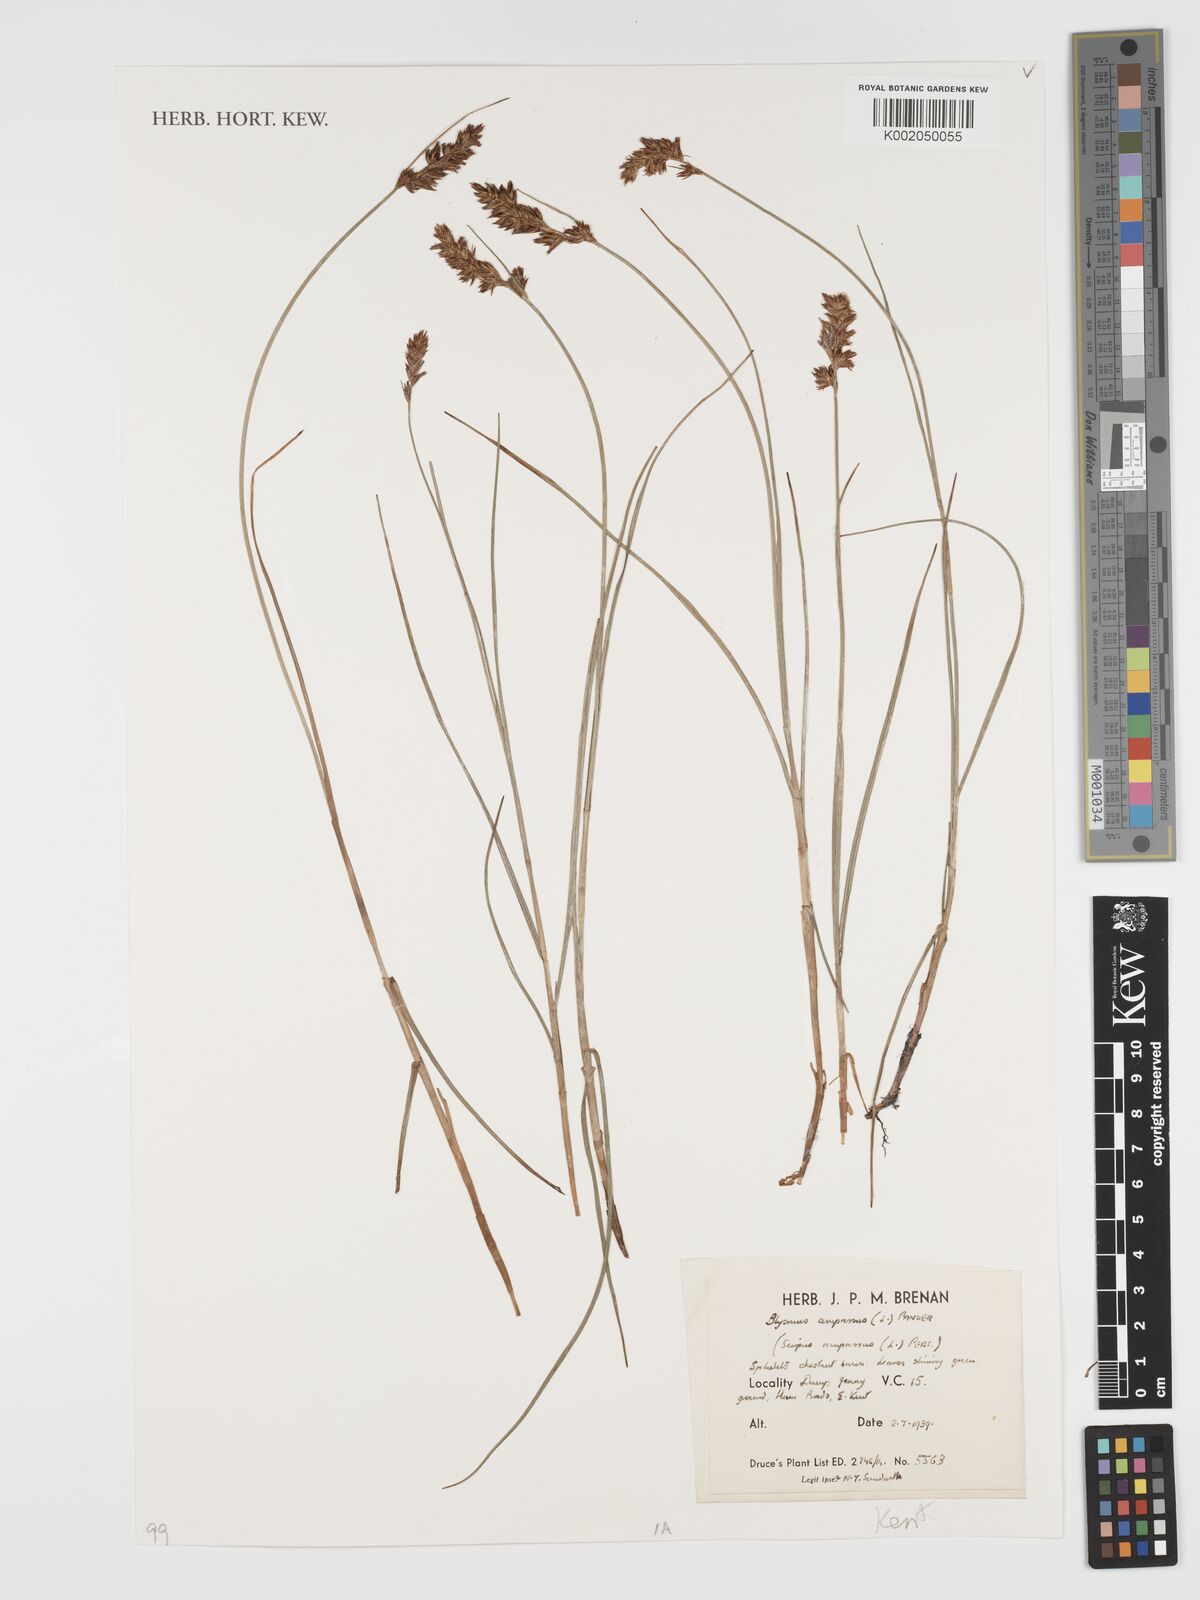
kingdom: Plantae
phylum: Tracheophyta
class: Liliopsida
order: Poales
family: Cyperaceae
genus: Blysmus
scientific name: Blysmus compressus
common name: Flat-sedge
